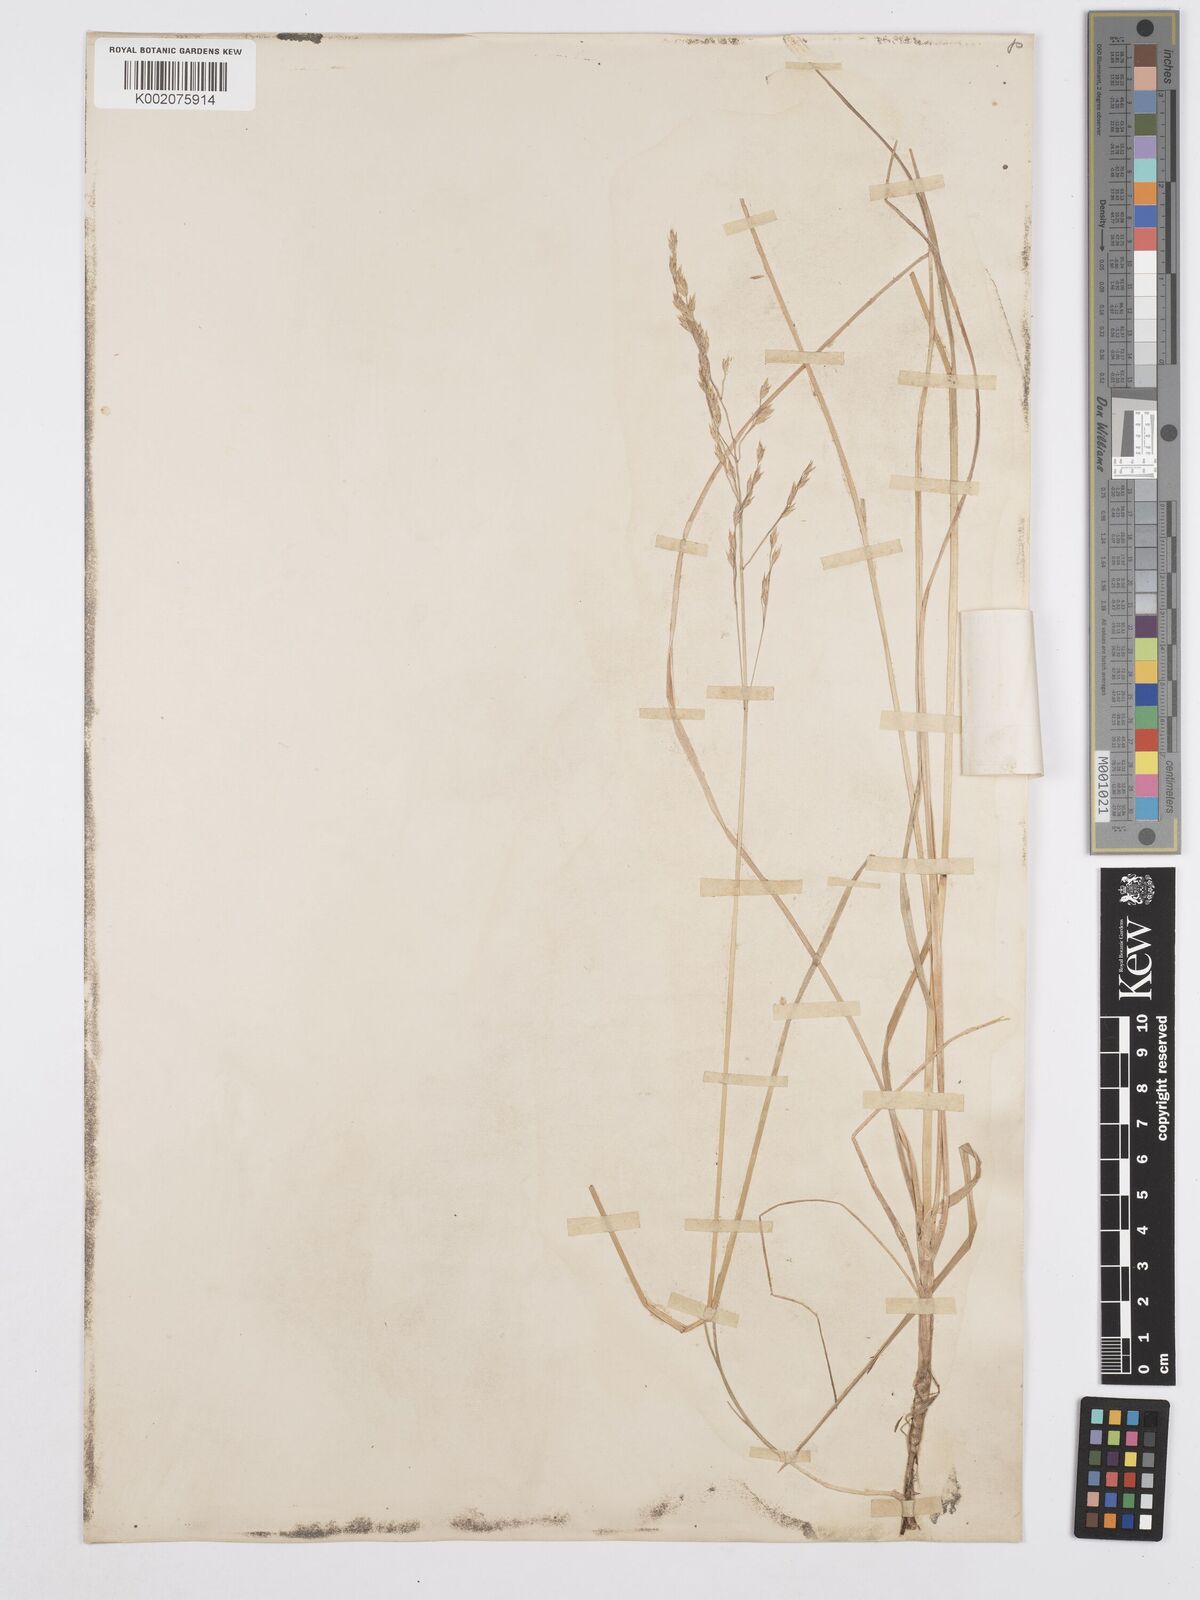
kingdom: Plantae
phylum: Tracheophyta
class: Liliopsida
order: Poales
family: Poaceae
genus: Poa
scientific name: Poa kelloggii
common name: Kellogg's bluegrass
